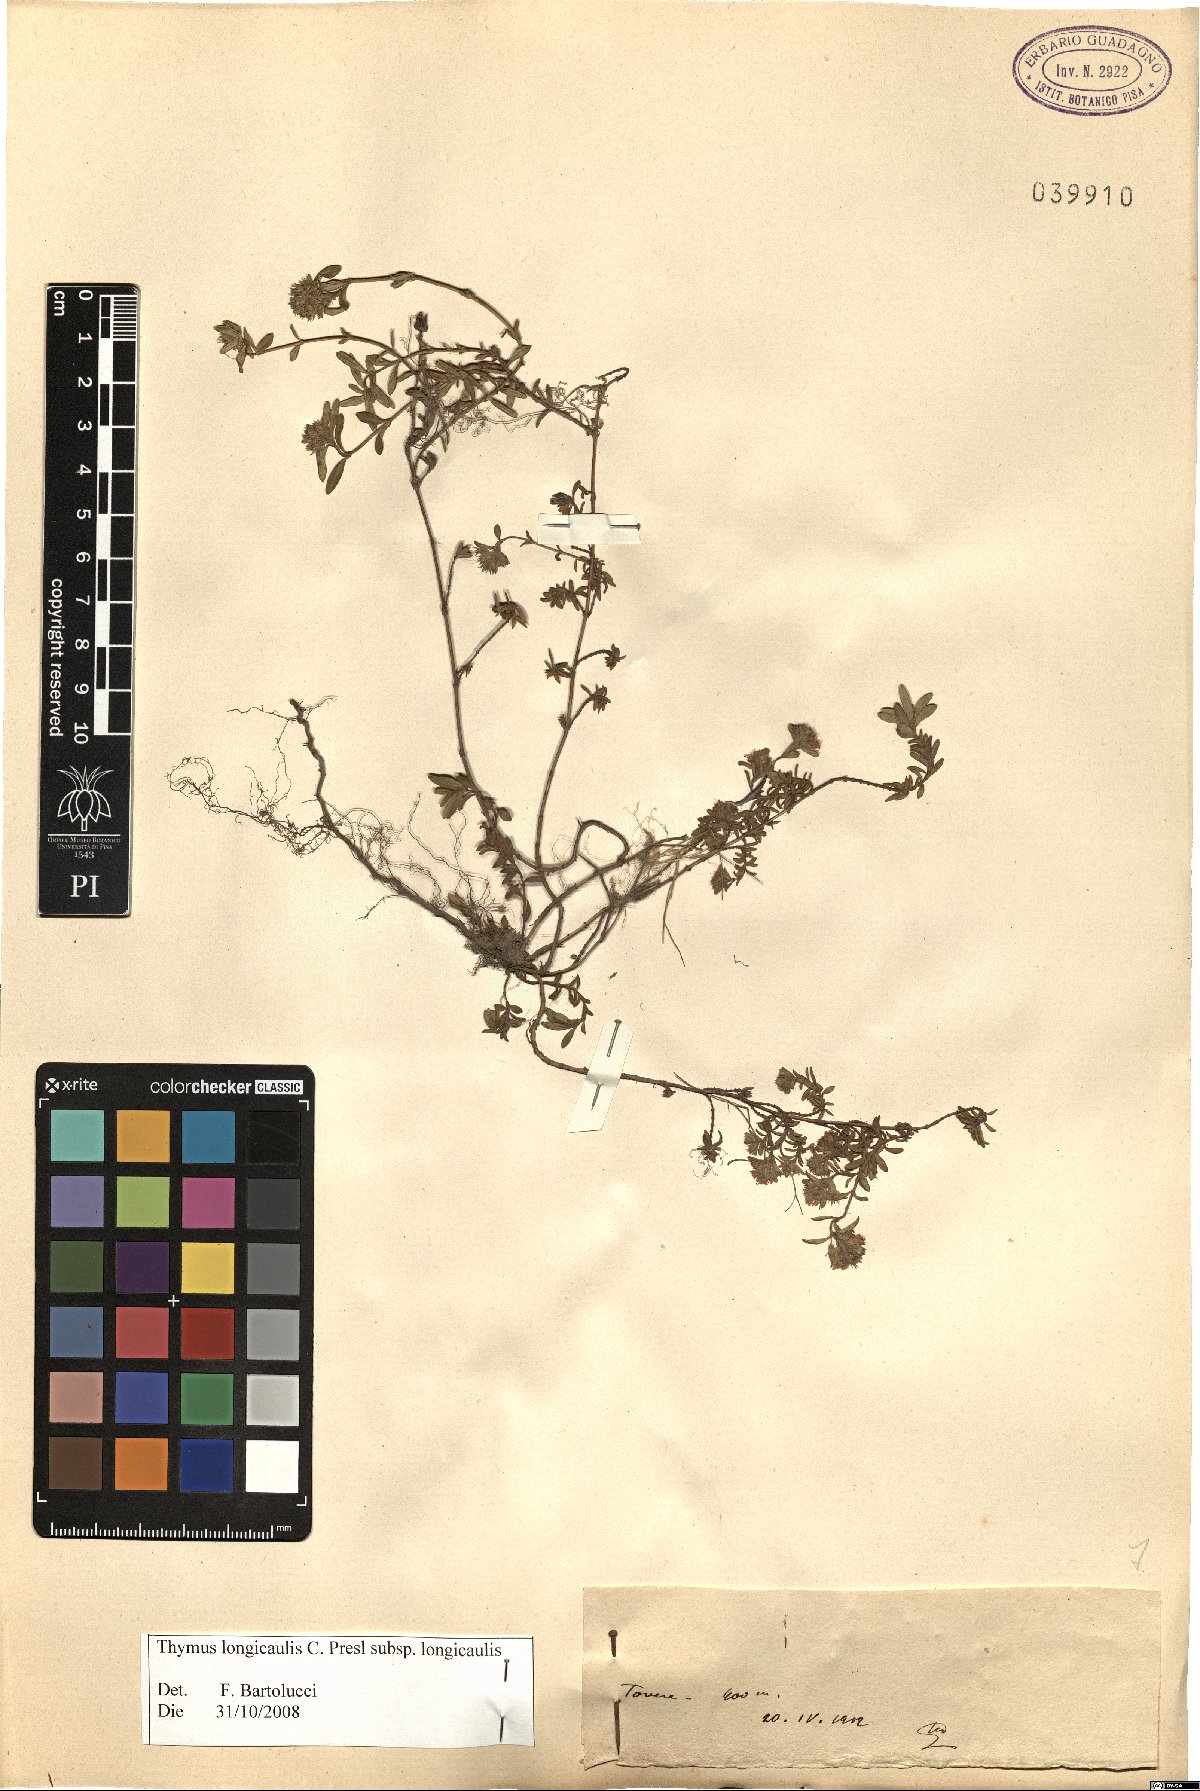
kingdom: Plantae
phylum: Tracheophyta
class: Magnoliopsida
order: Lamiales
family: Lamiaceae
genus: Thymus
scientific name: Thymus longicaulis
